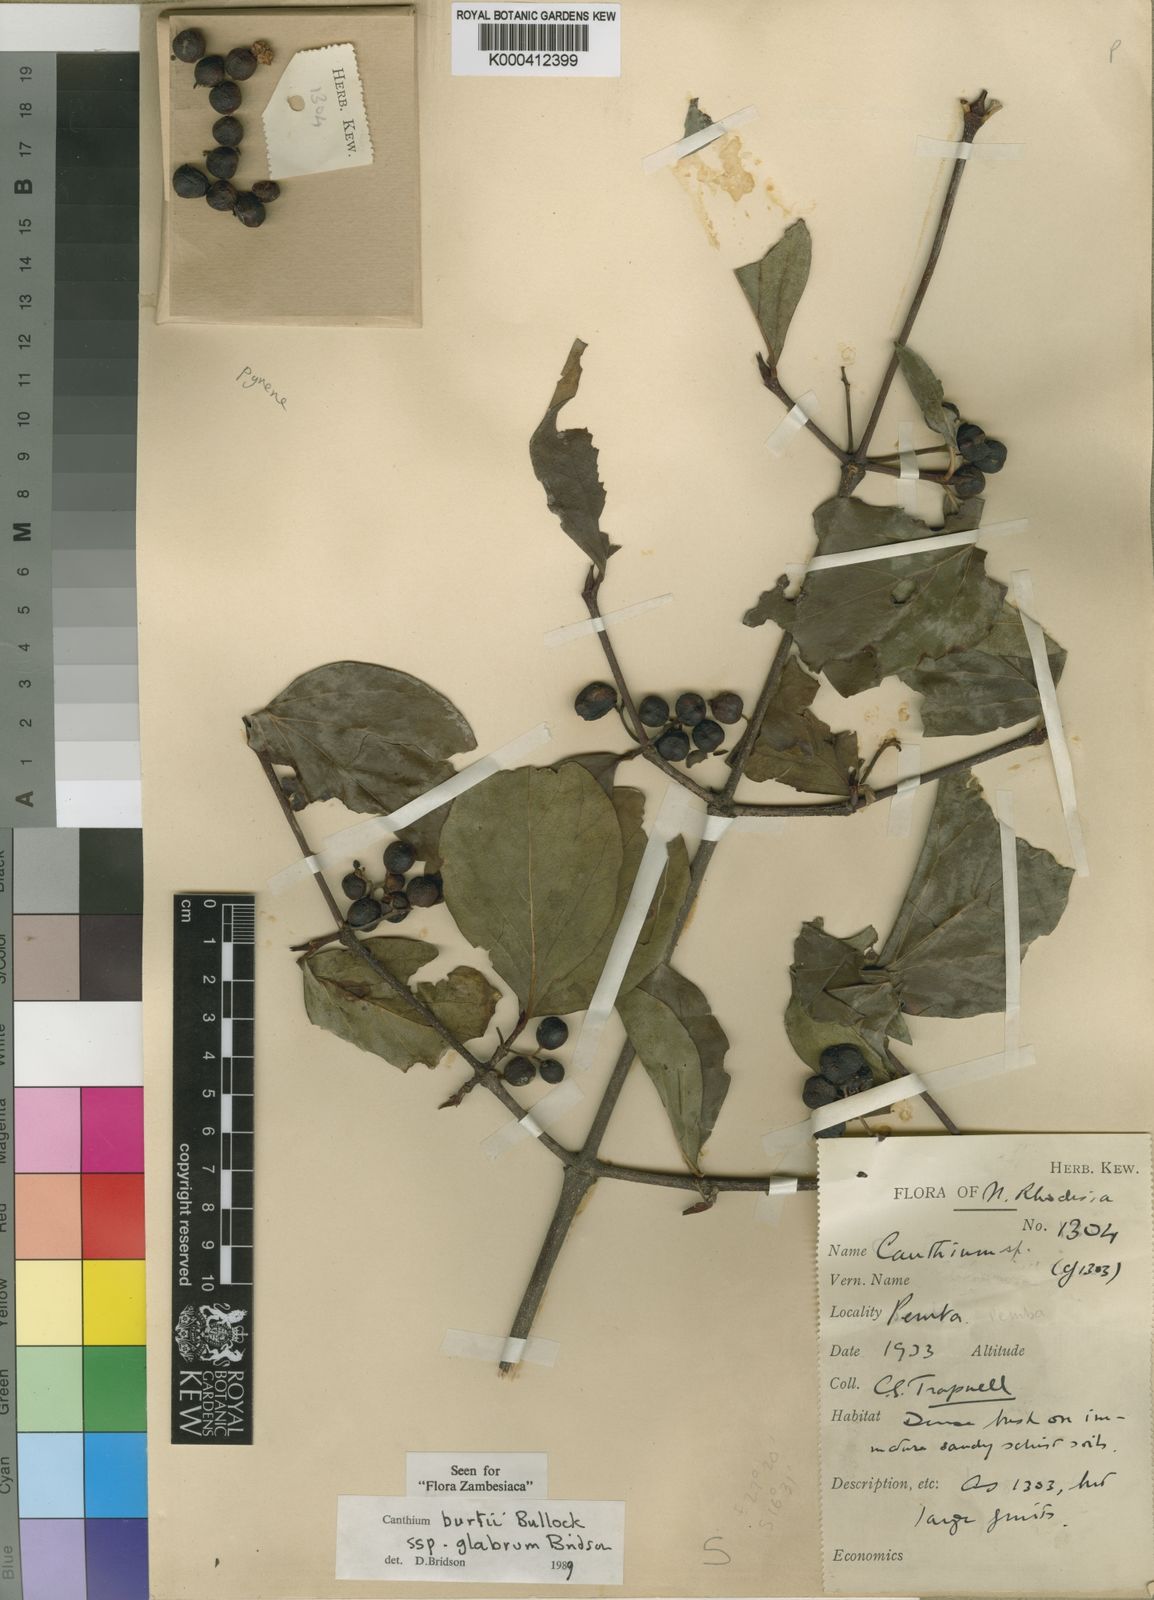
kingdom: Plantae
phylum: Tracheophyta
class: Magnoliopsida
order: Gentianales
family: Rubiaceae
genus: Afrocanthium
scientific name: Afrocanthium burttii
